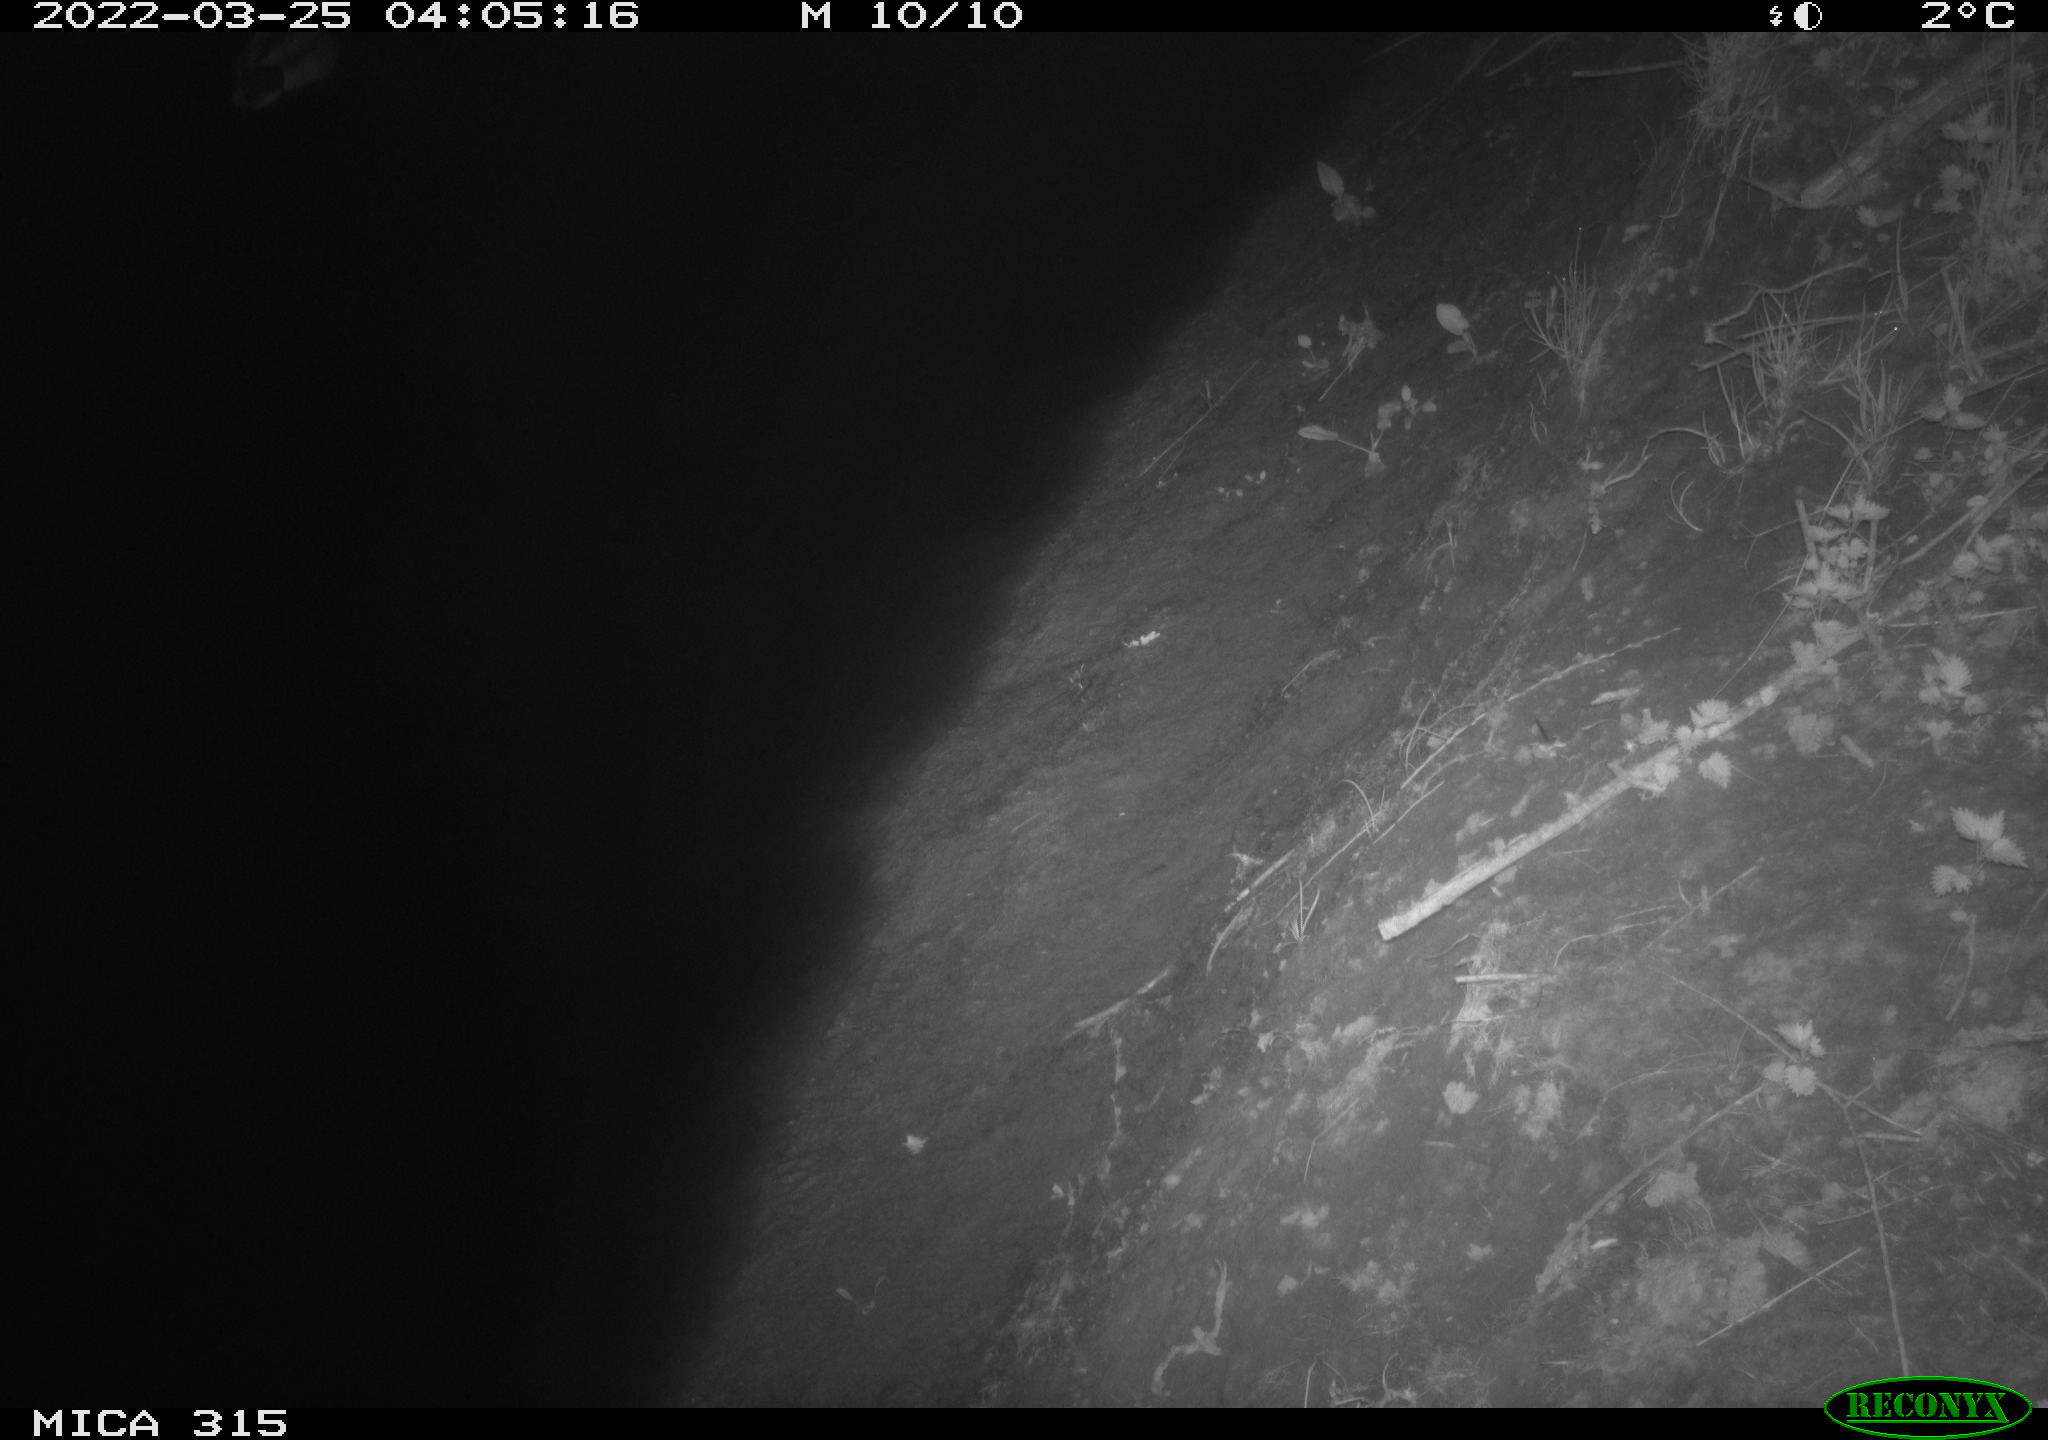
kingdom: Animalia
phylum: Chordata
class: Aves
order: Anseriformes
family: Anatidae
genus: Anas
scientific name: Anas platyrhynchos
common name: Mallard
